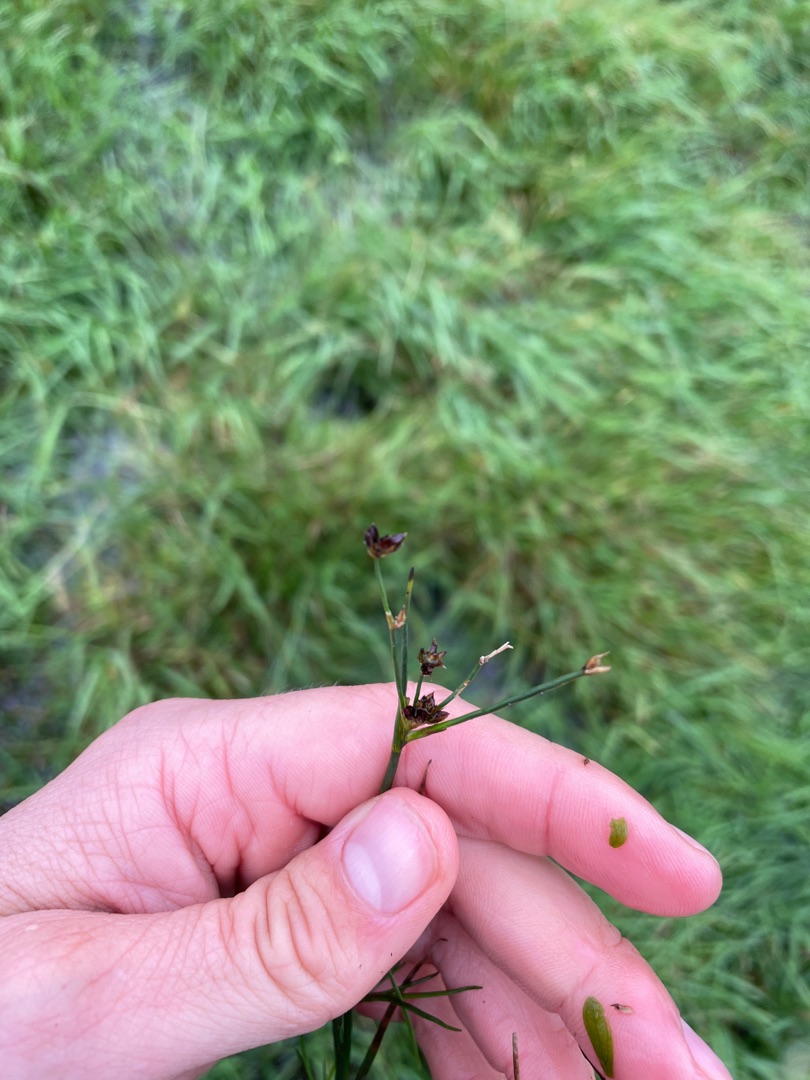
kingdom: Plantae
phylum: Tracheophyta
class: Liliopsida
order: Poales
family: Juncaceae
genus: Juncus
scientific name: Juncus articulatus
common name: Glanskapslet siv
